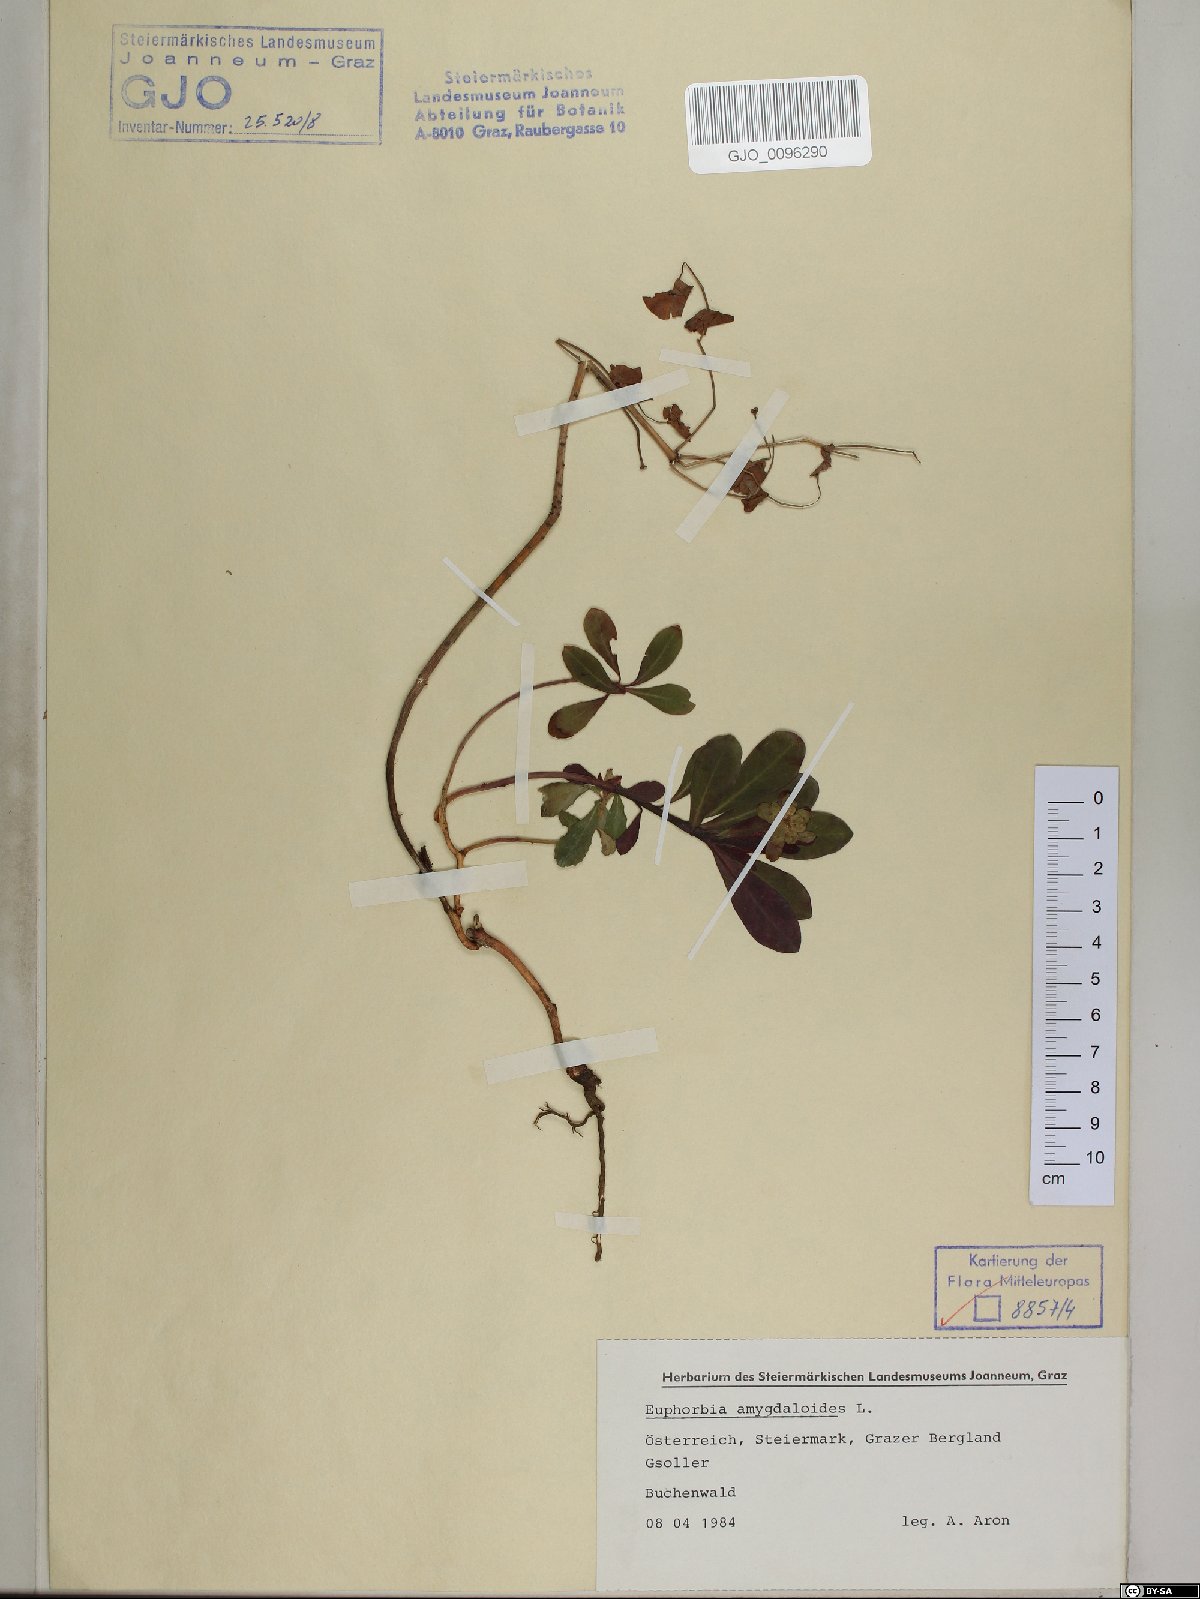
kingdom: Plantae
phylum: Tracheophyta
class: Magnoliopsida
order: Malpighiales
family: Euphorbiaceae
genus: Euphorbia
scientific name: Euphorbia amygdaloides
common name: Wood spurge
